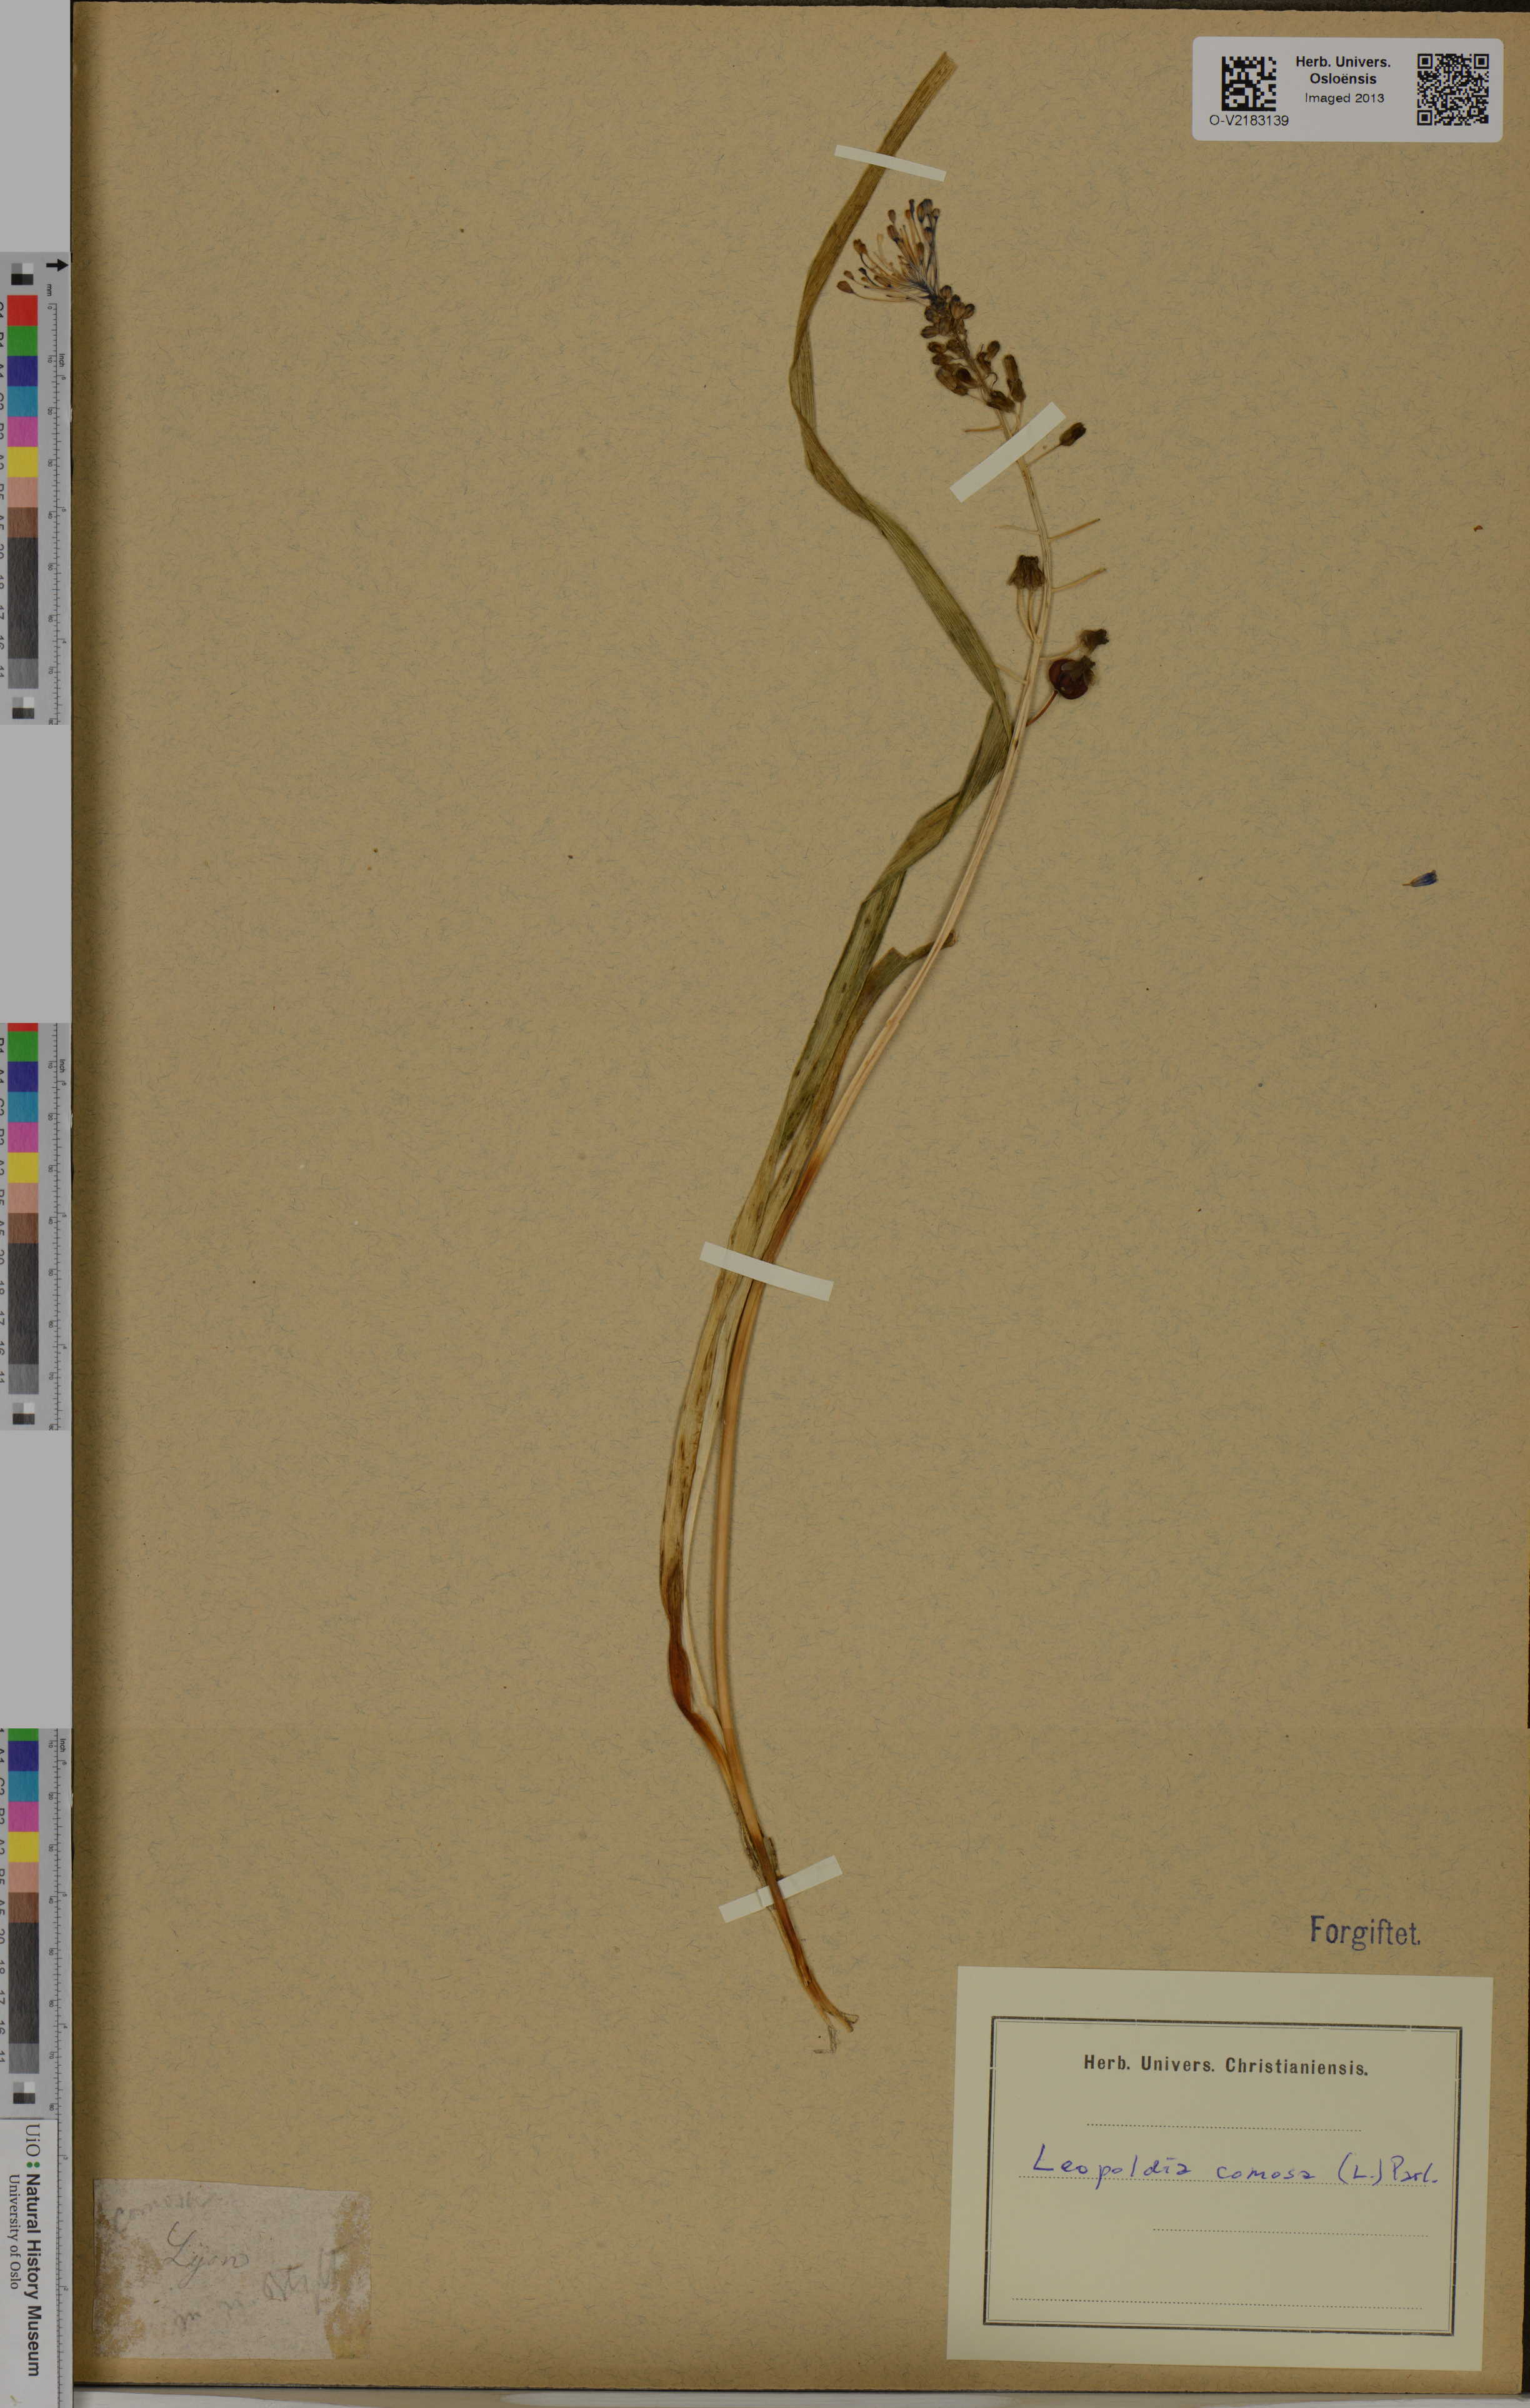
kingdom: Plantae
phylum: Tracheophyta
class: Liliopsida
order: Asparagales
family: Asparagaceae
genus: Muscari
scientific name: Muscari comosum
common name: Tassel hyacinth
